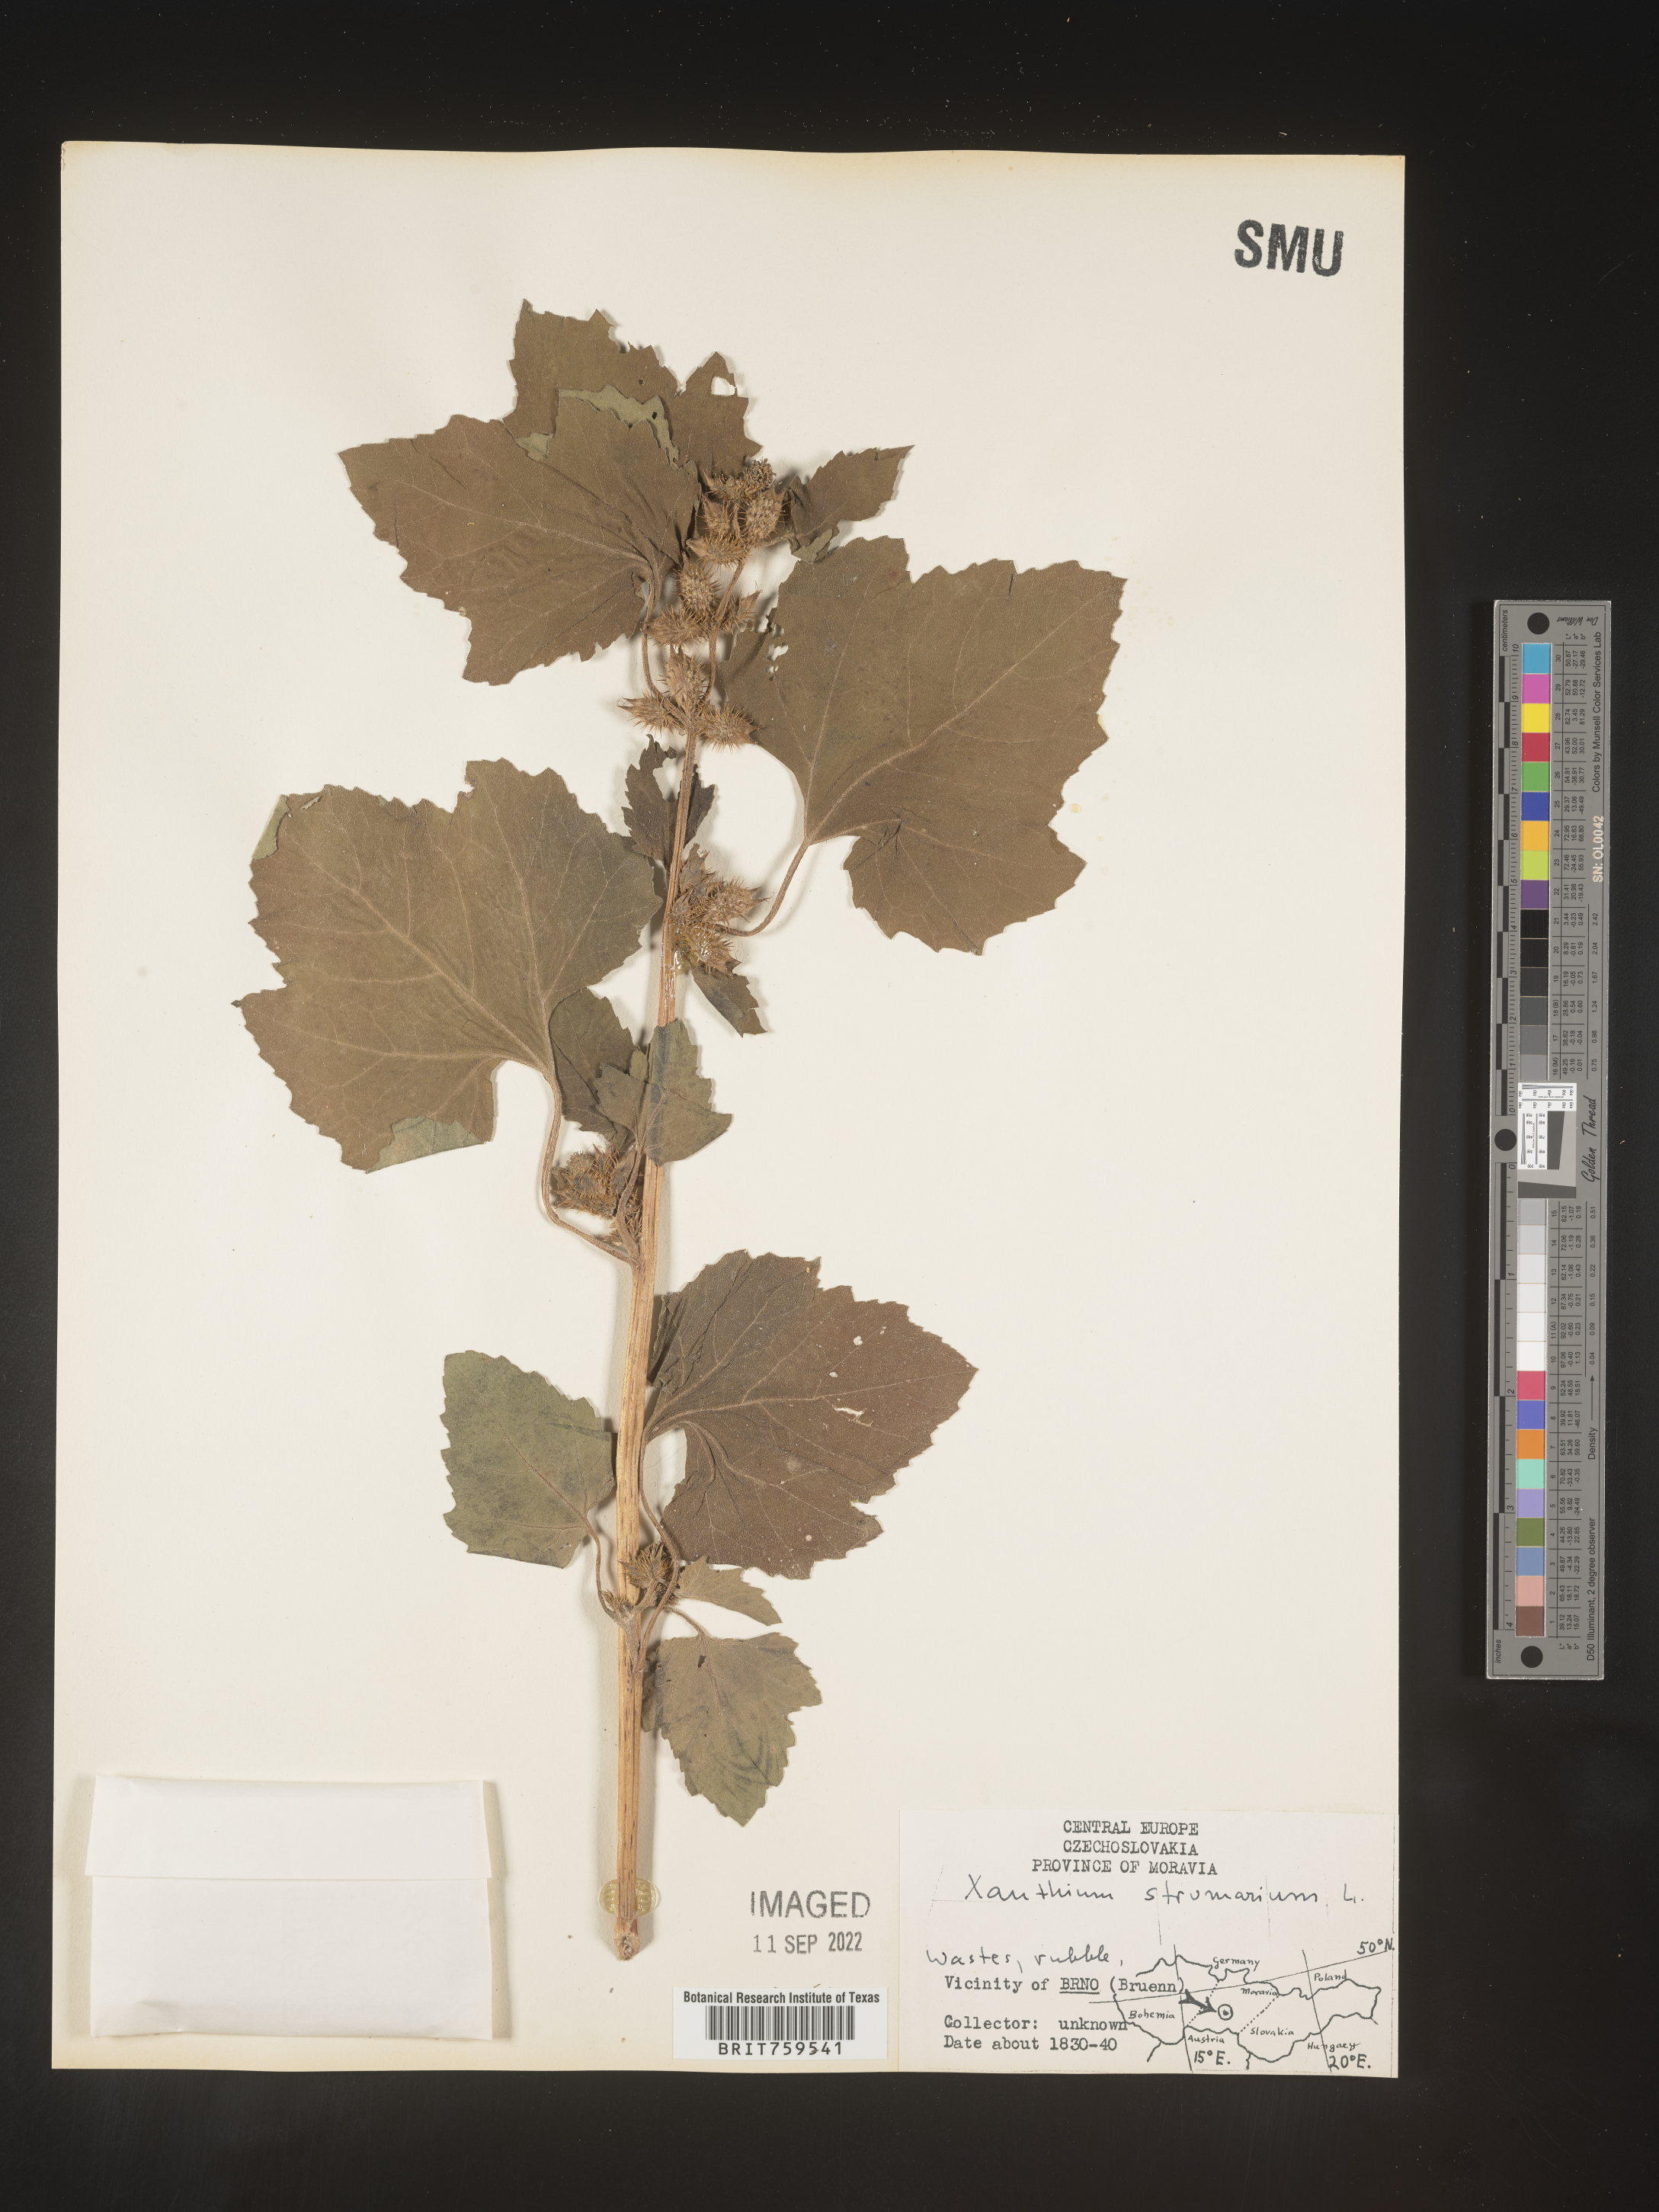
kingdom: Plantae
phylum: Tracheophyta
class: Magnoliopsida
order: Asterales
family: Asteraceae
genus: Xanthium
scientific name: Xanthium
